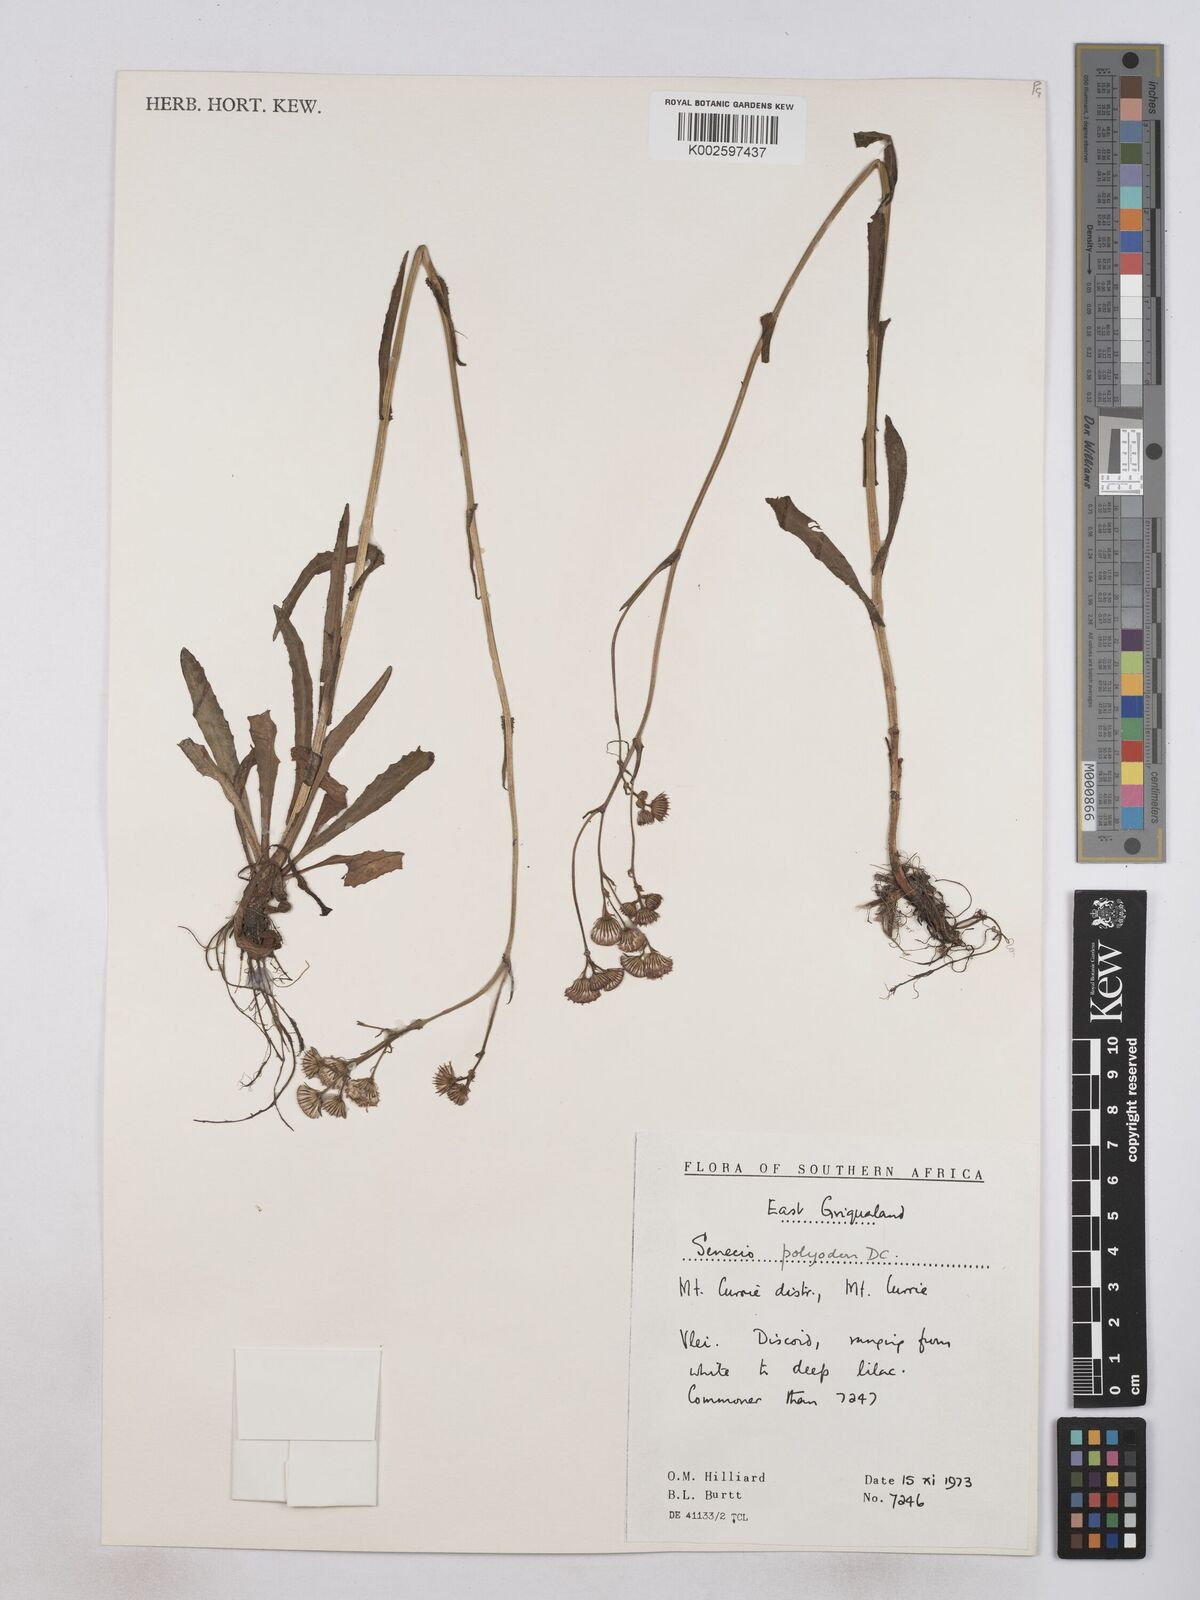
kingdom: Plantae
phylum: Tracheophyta
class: Magnoliopsida
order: Asterales
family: Asteraceae
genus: Senecio
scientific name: Senecio polyodon
